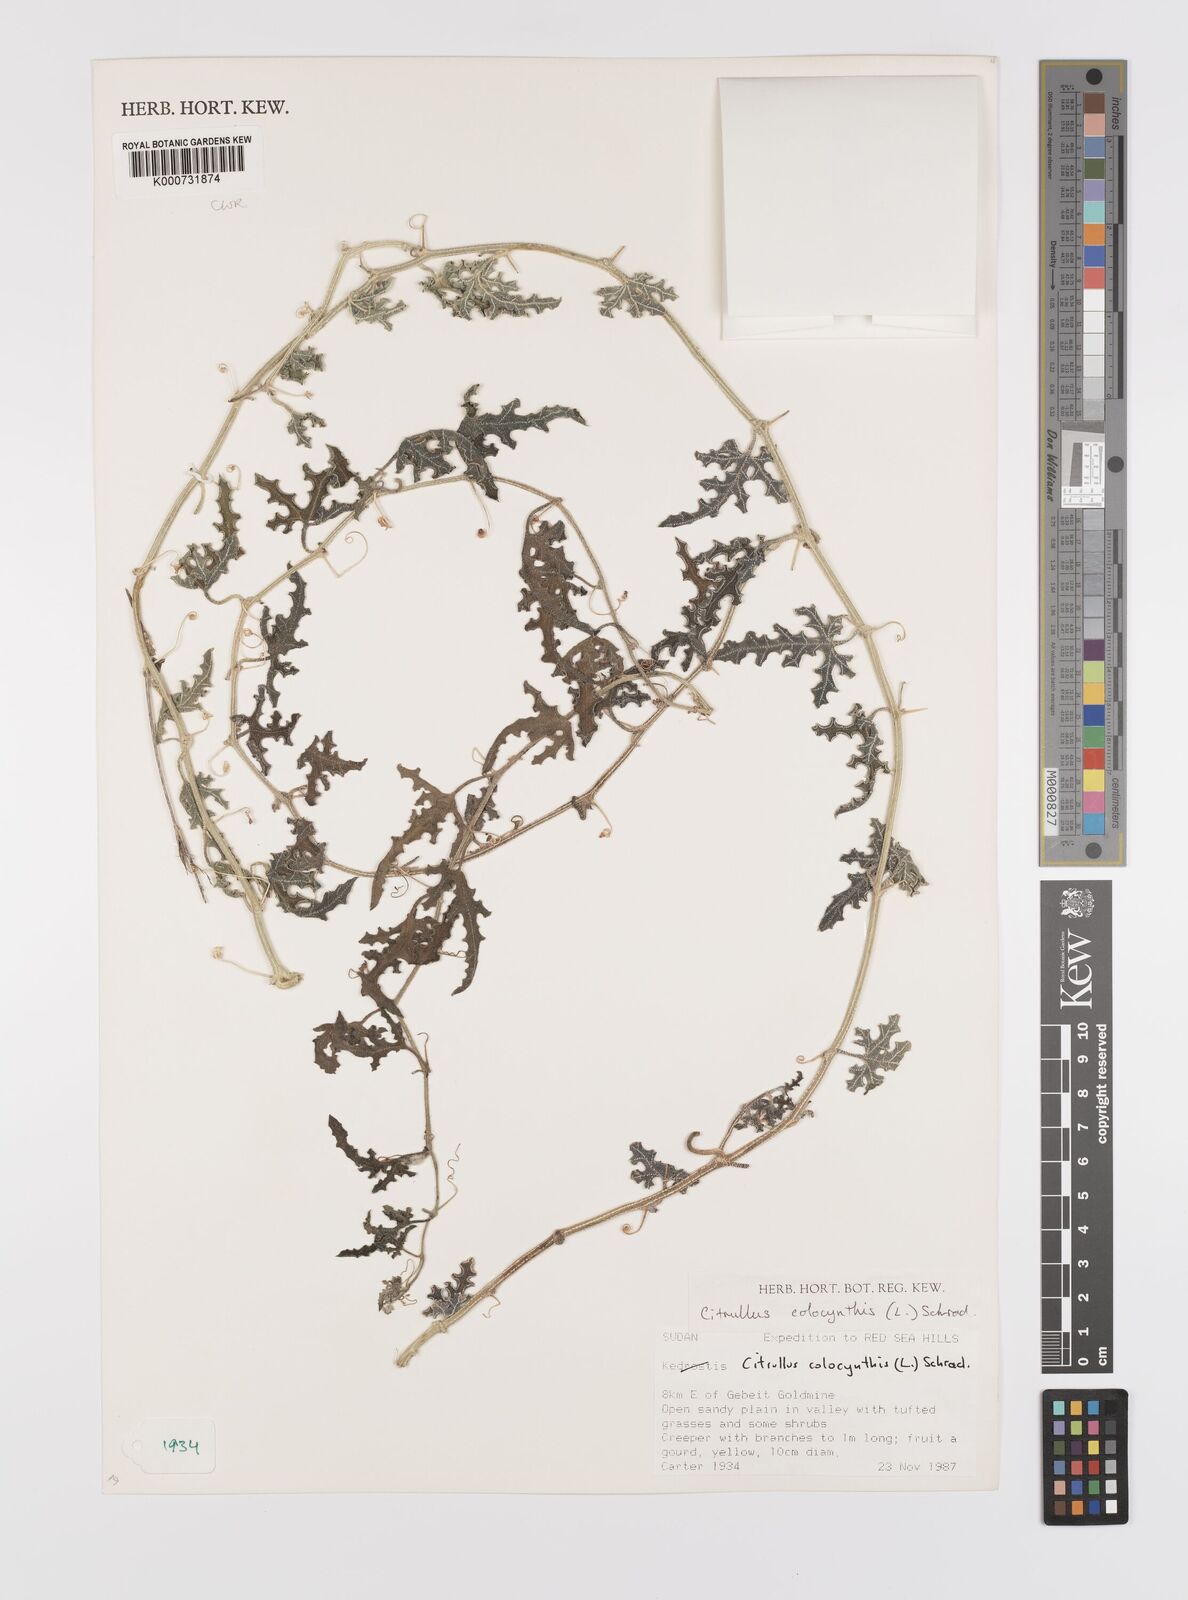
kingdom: Plantae
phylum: Tracheophyta
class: Magnoliopsida
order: Cucurbitales
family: Cucurbitaceae
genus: Citrullus
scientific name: Citrullus colocynthis
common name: Colocynth
